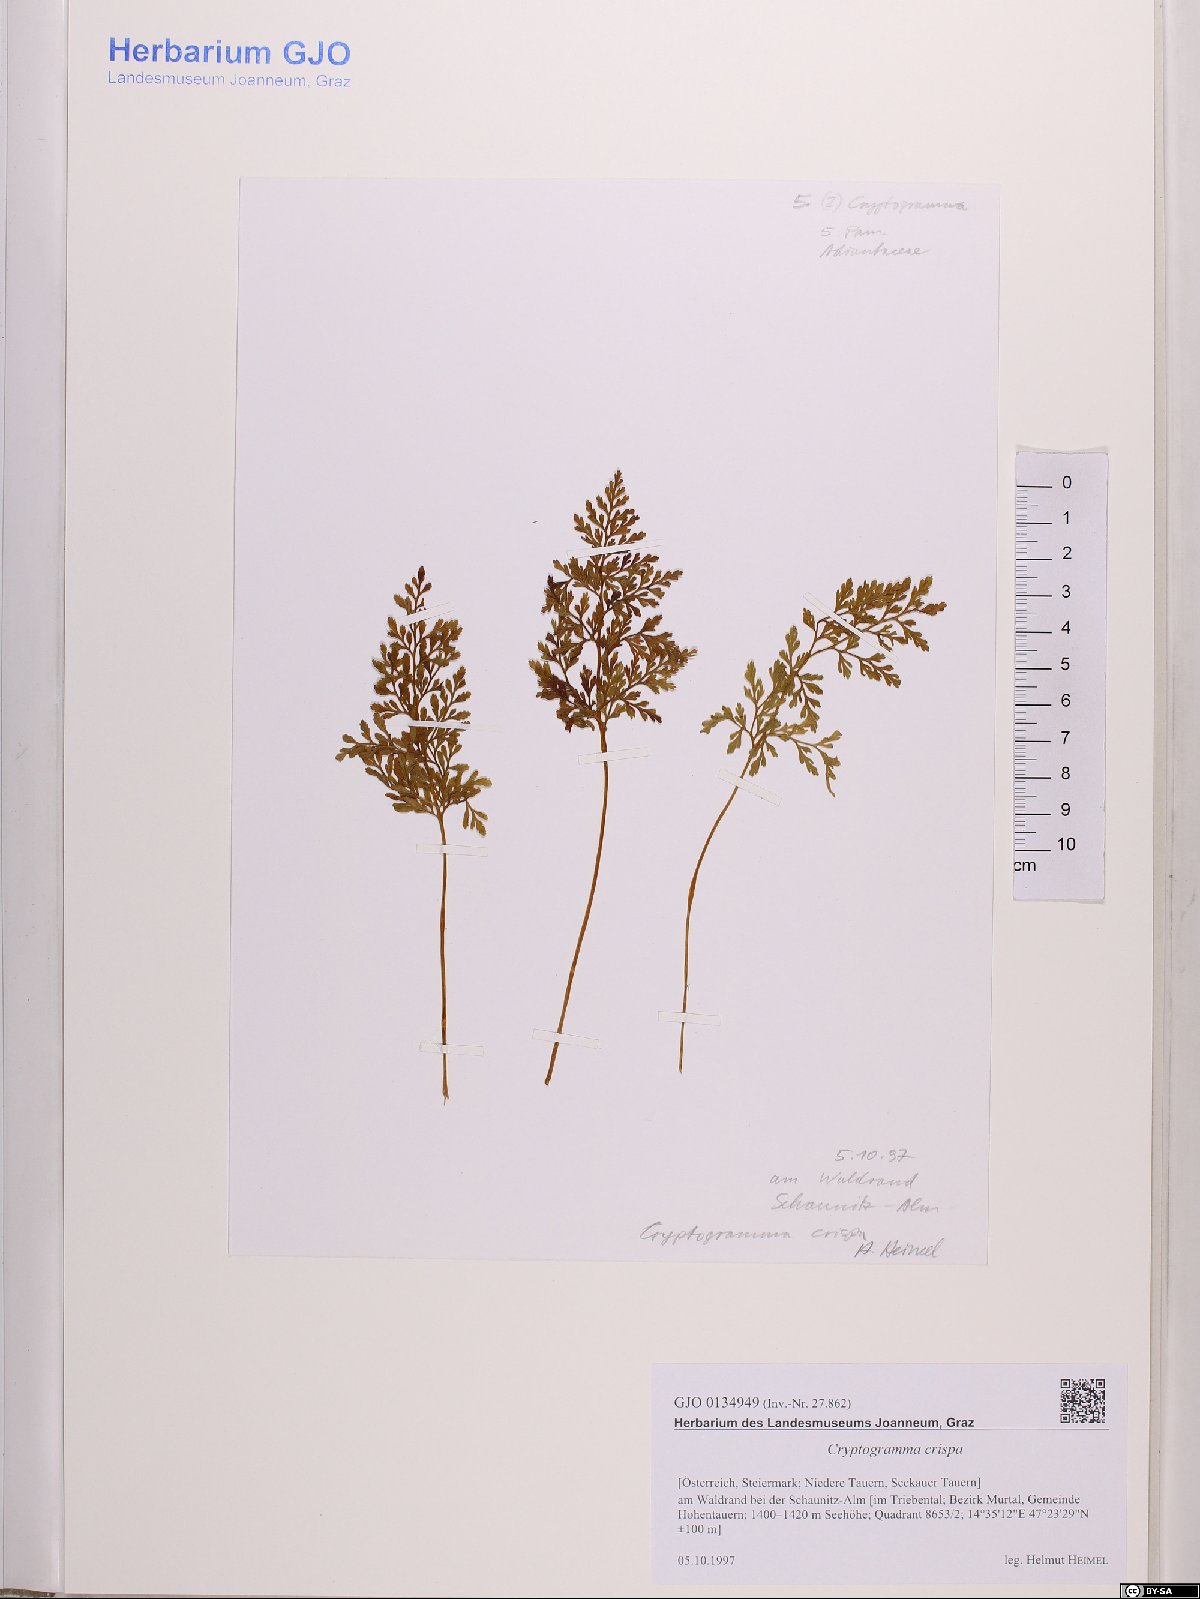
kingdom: Plantae
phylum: Tracheophyta
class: Polypodiopsida
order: Polypodiales
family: Pteridaceae
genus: Cryptogramma
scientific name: Cryptogramma crispa
